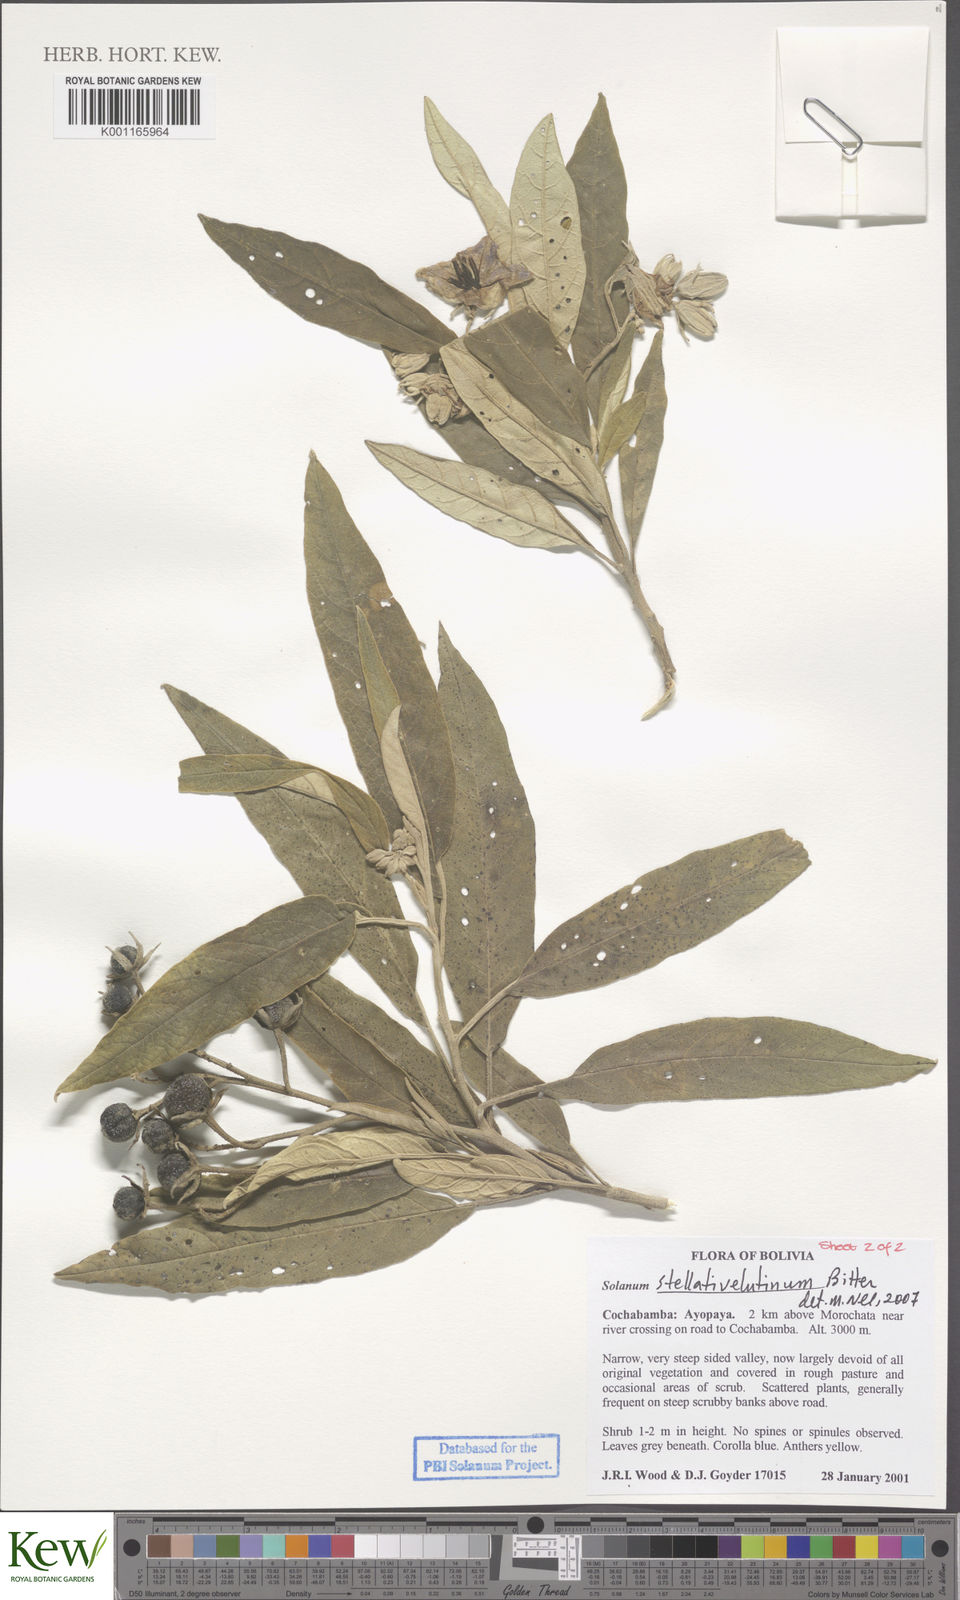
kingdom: Plantae
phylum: Tracheophyta
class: Magnoliopsida
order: Solanales
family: Solanaceae
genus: Solanum
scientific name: Solanum stellativelutinum
